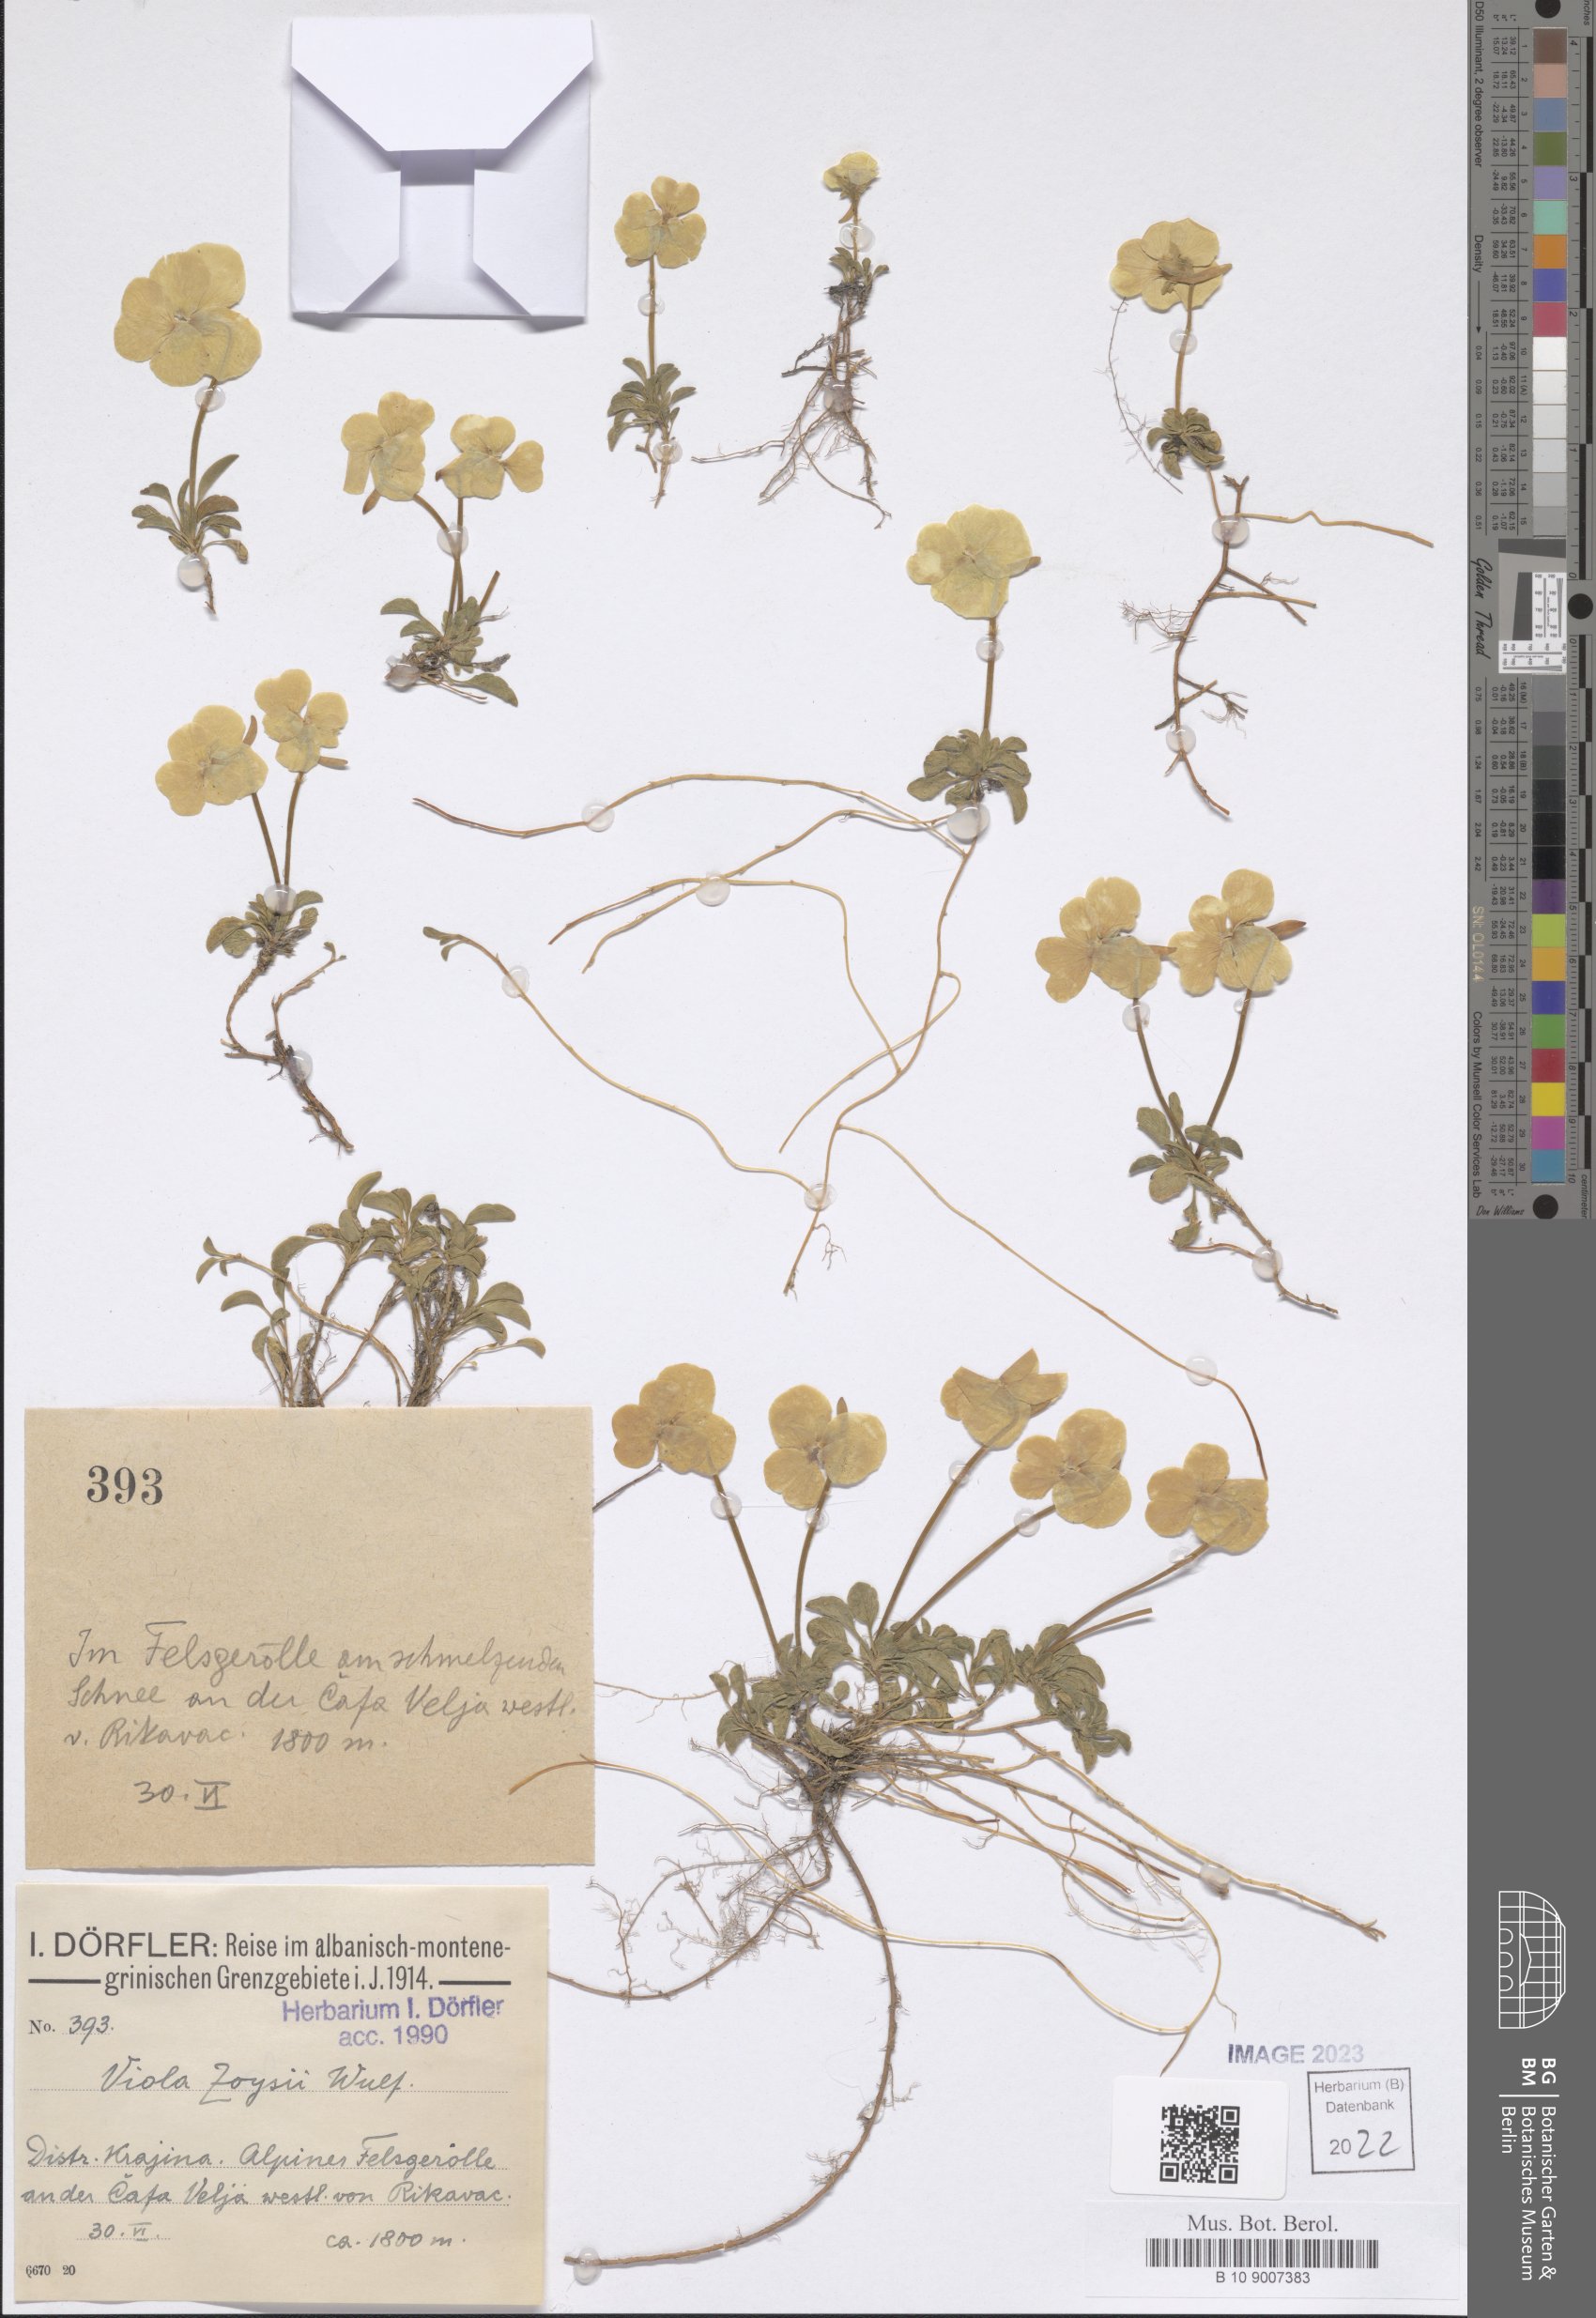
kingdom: Plantae
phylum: Tracheophyta
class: Magnoliopsida
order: Malpighiales
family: Violaceae
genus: Viola
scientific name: Viola calcarata
